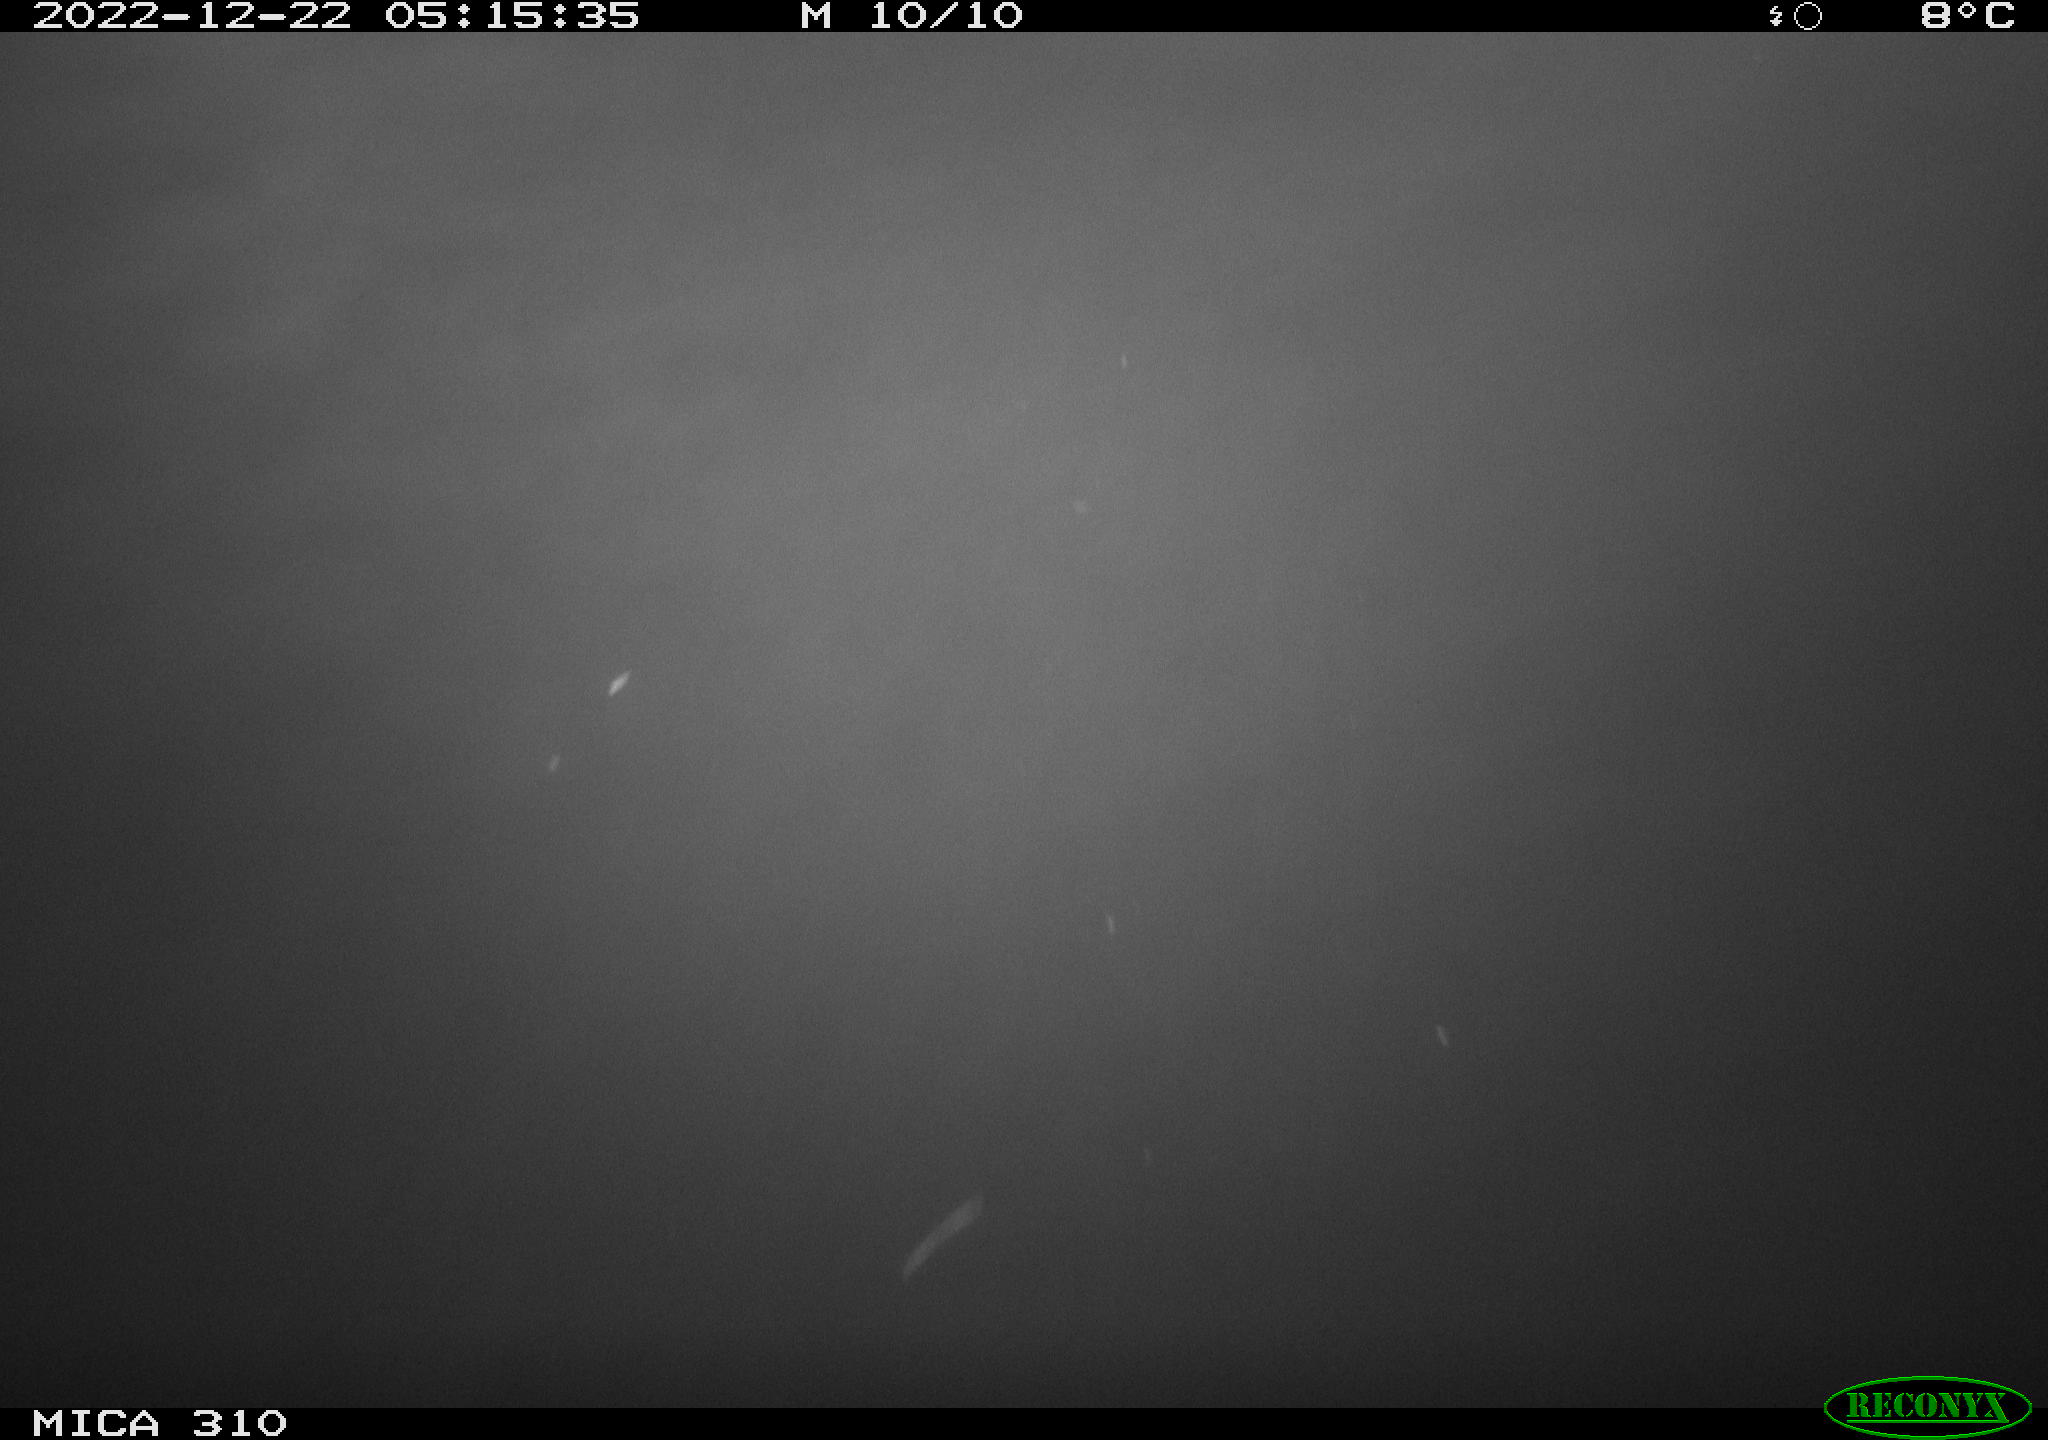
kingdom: Animalia
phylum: Chordata
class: Mammalia
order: Rodentia
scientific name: Rodentia
